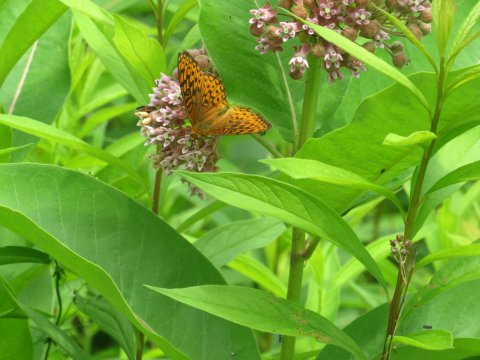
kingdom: Animalia
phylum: Arthropoda
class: Insecta
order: Lepidoptera
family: Nymphalidae
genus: Speyeria
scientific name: Speyeria cybele
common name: Great Spangled Fritillary
